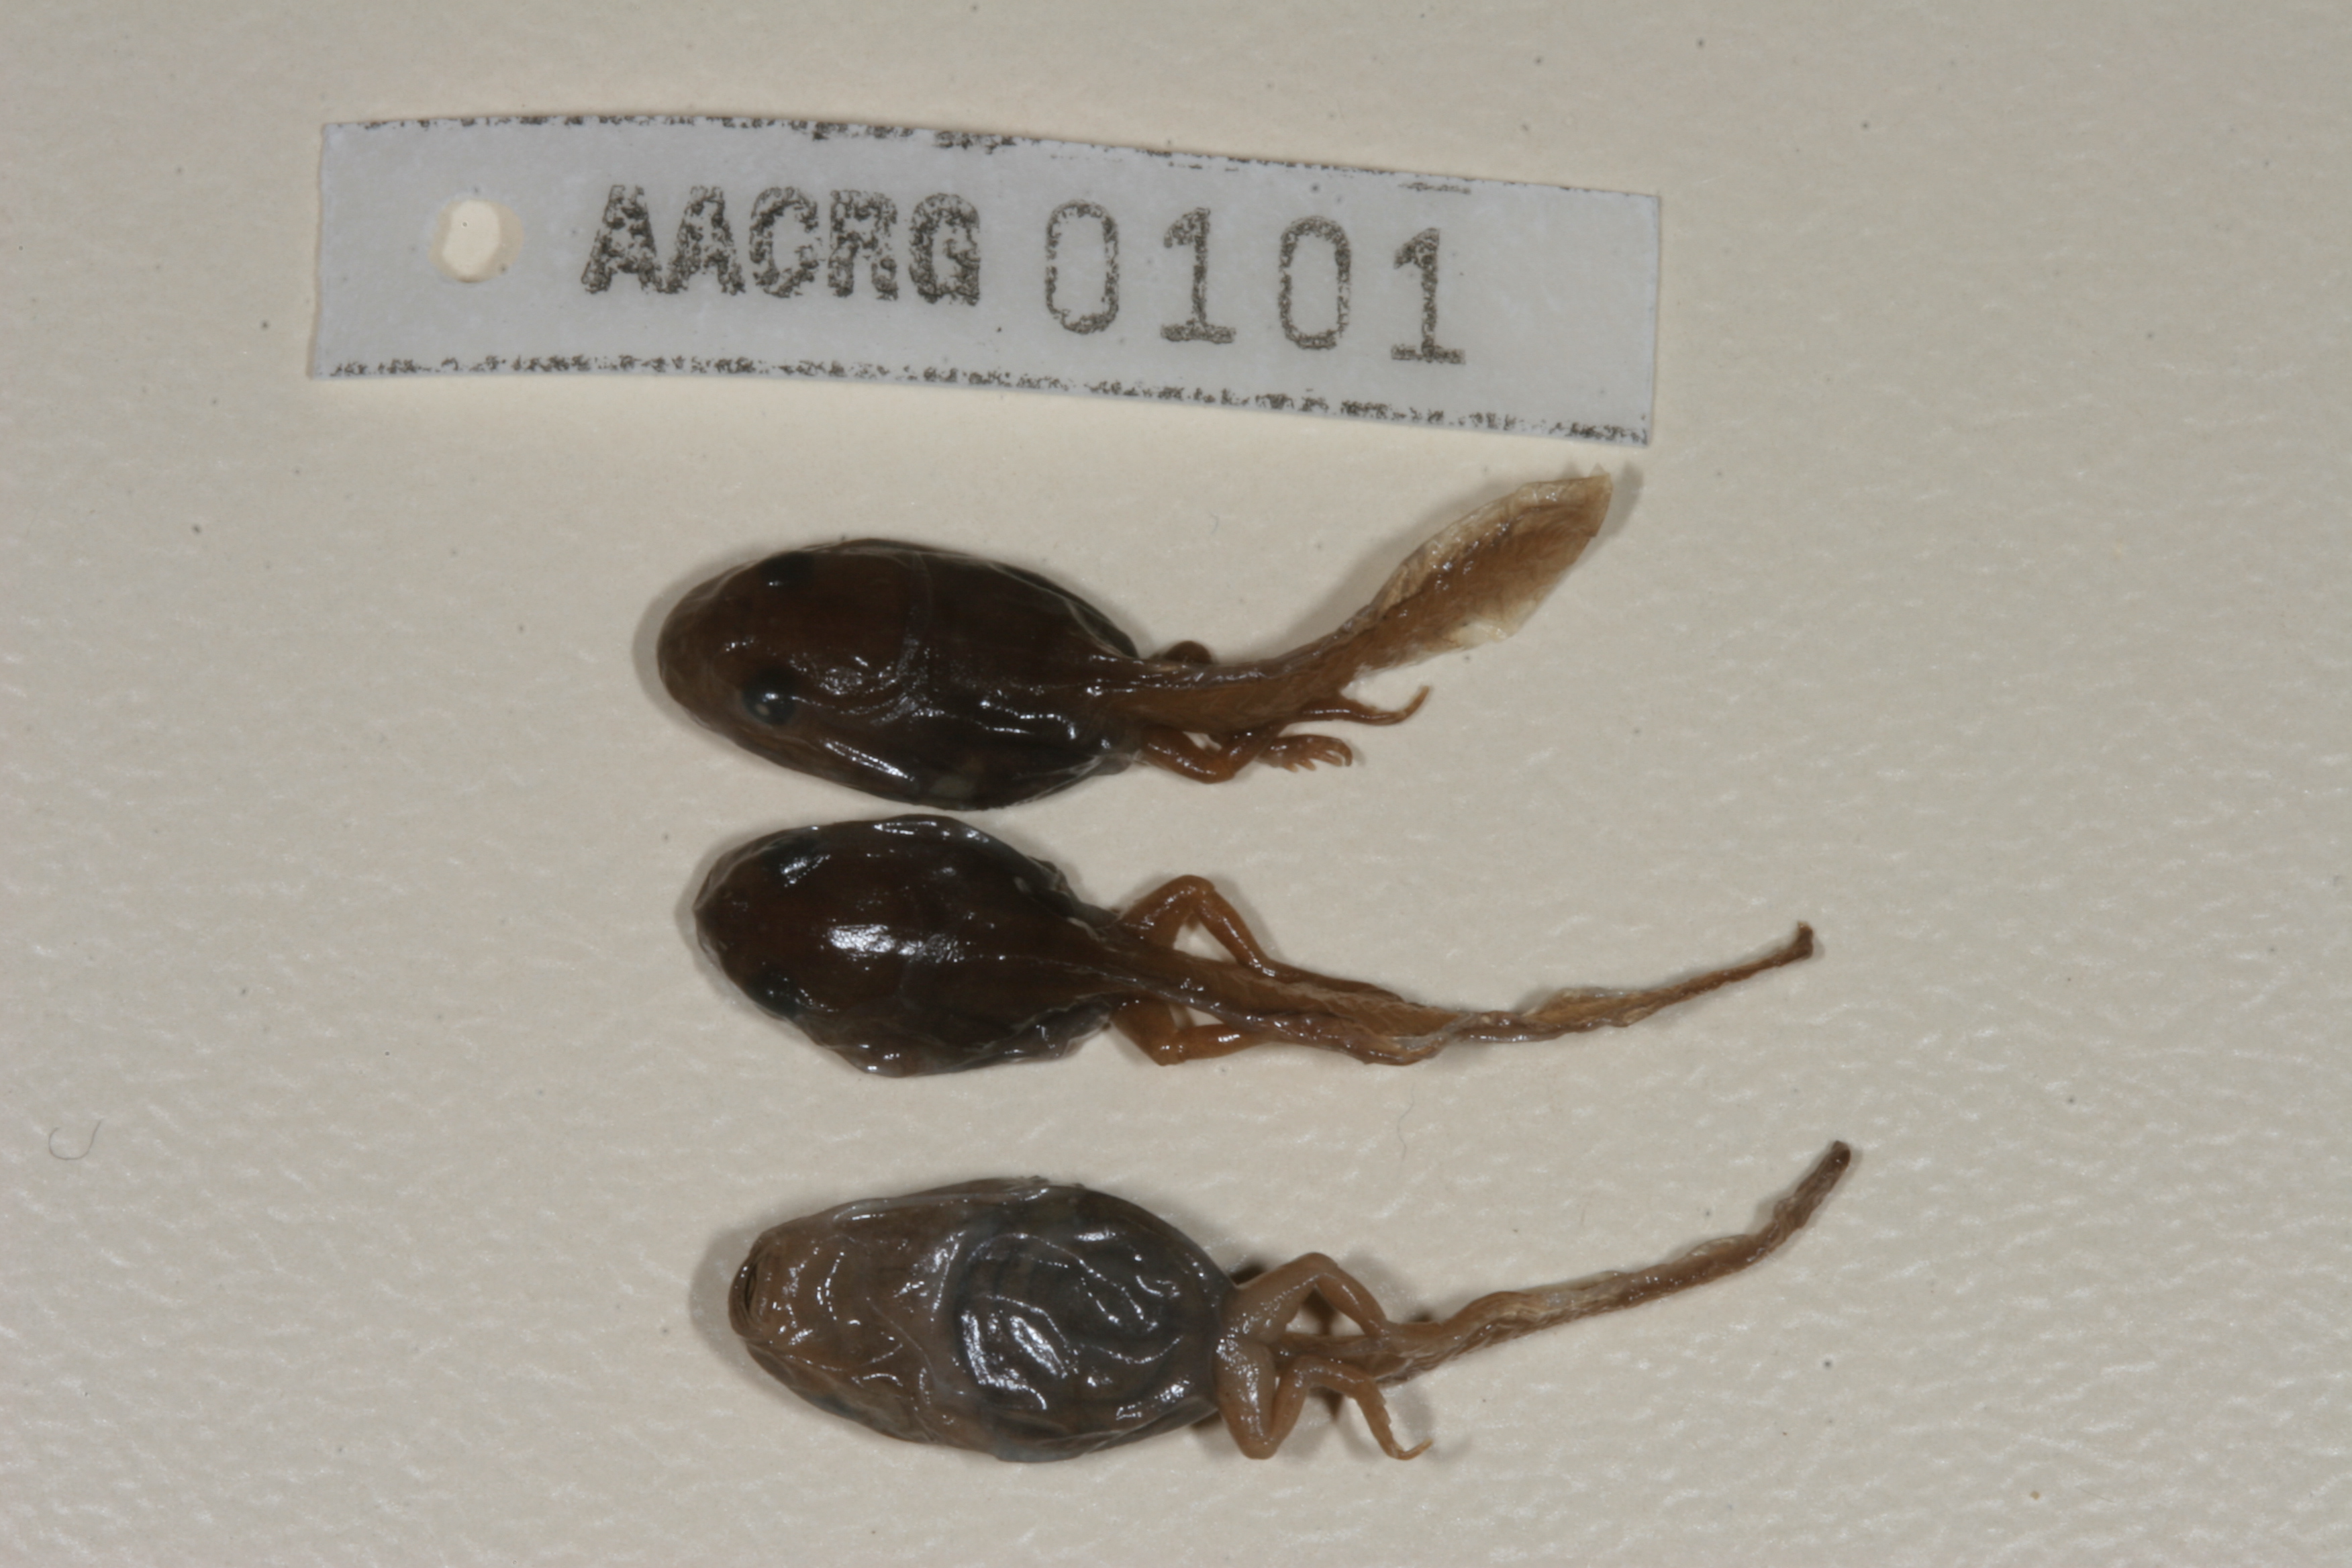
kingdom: Animalia
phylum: Chordata
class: Amphibia
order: Anura
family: Bufonidae
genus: Schismaderma
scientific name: Schismaderma carens
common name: African split-skin toad
